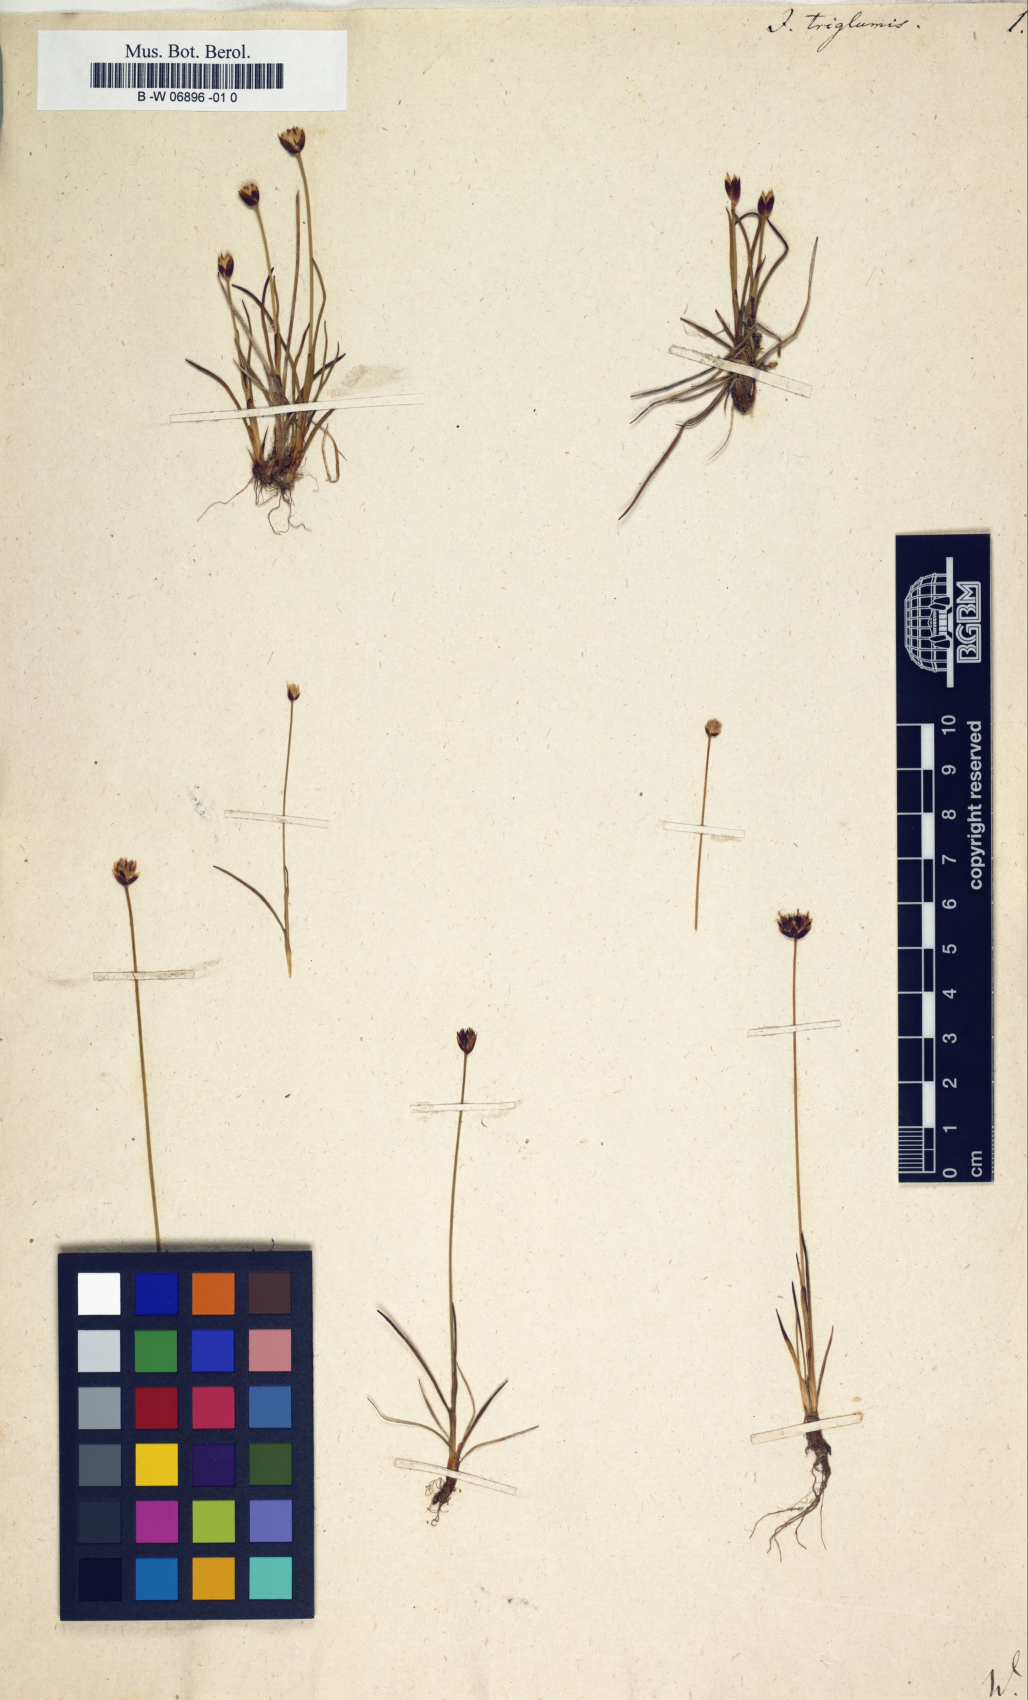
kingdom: Plantae
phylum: Tracheophyta
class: Liliopsida
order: Poales
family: Juncaceae
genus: Juncus
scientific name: Juncus triglumis
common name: Three-flowered rush
